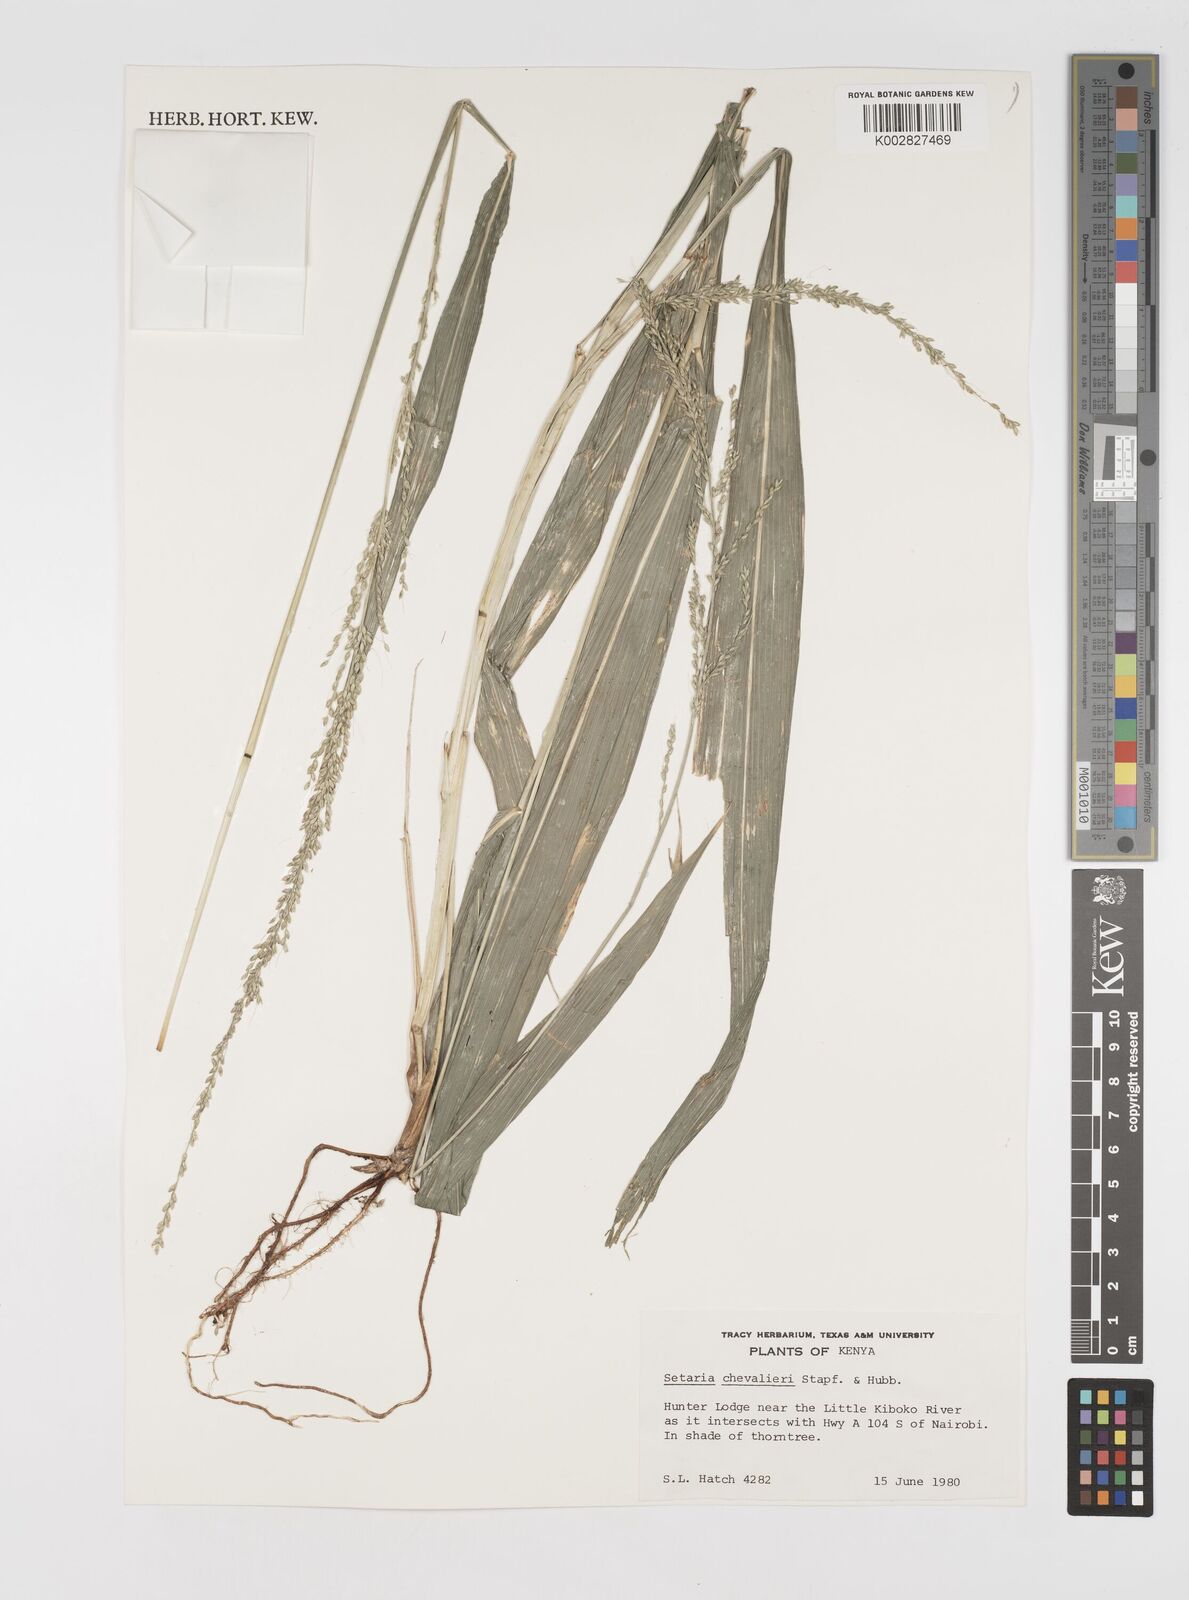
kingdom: Plantae
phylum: Tracheophyta
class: Liliopsida
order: Poales
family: Poaceae
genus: Setaria
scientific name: Setaria megaphylla
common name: Bigleaf bristlegrass
